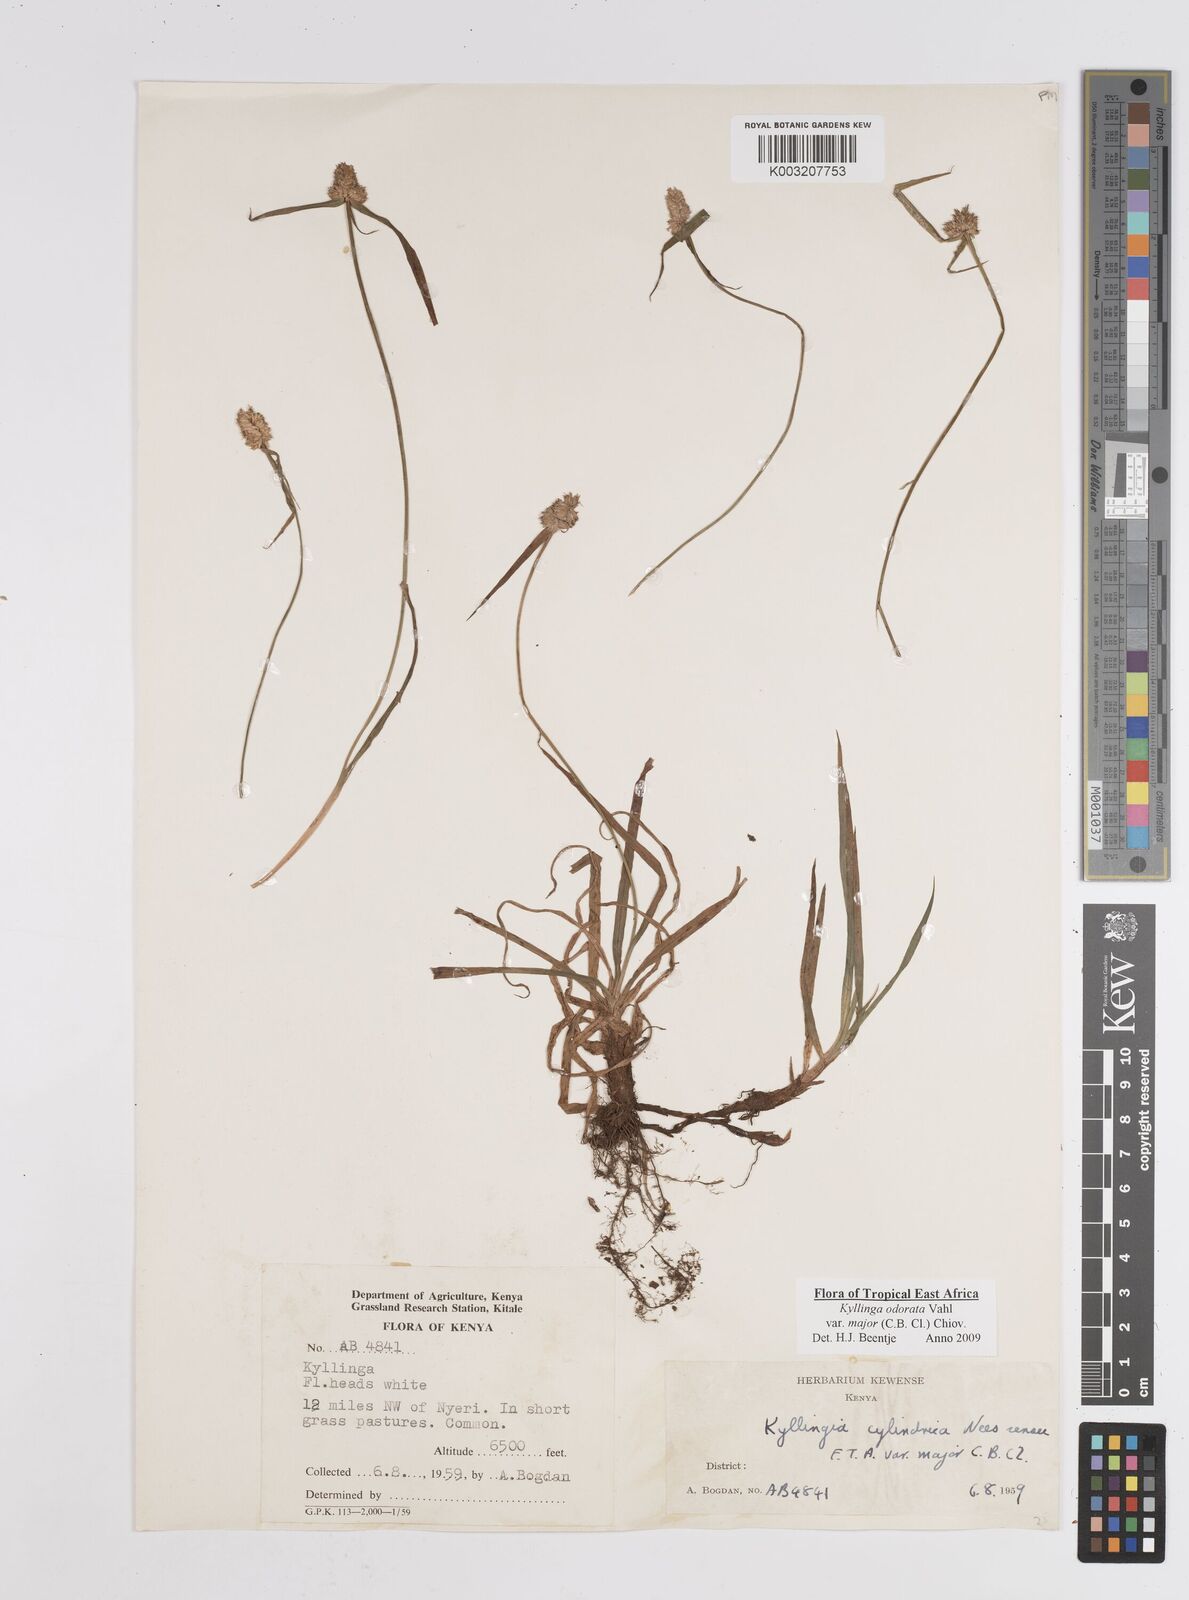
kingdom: Plantae
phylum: Tracheophyta
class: Liliopsida
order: Poales
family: Cyperaceae
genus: Cyperus
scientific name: Cyperus
